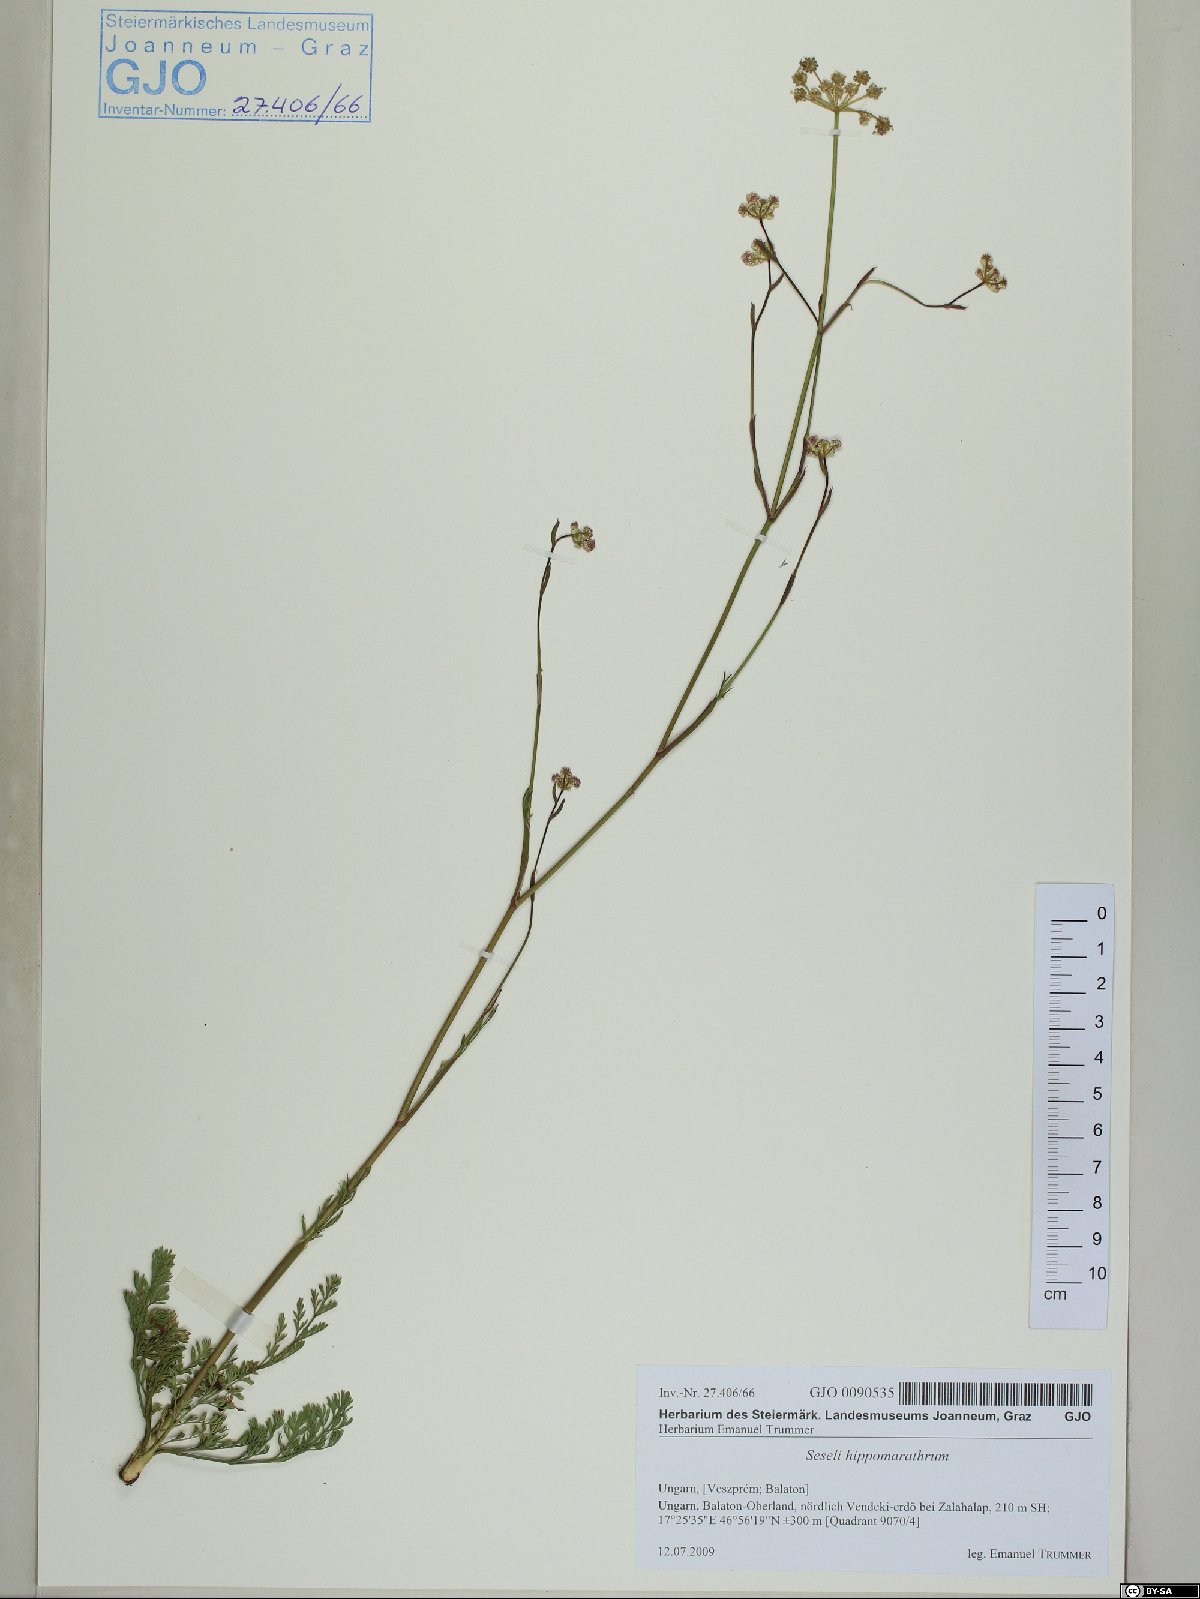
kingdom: Plantae
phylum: Tracheophyta
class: Magnoliopsida
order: Apiales
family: Apiaceae
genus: Hippomarathrum
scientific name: Hippomarathrum vulgare
